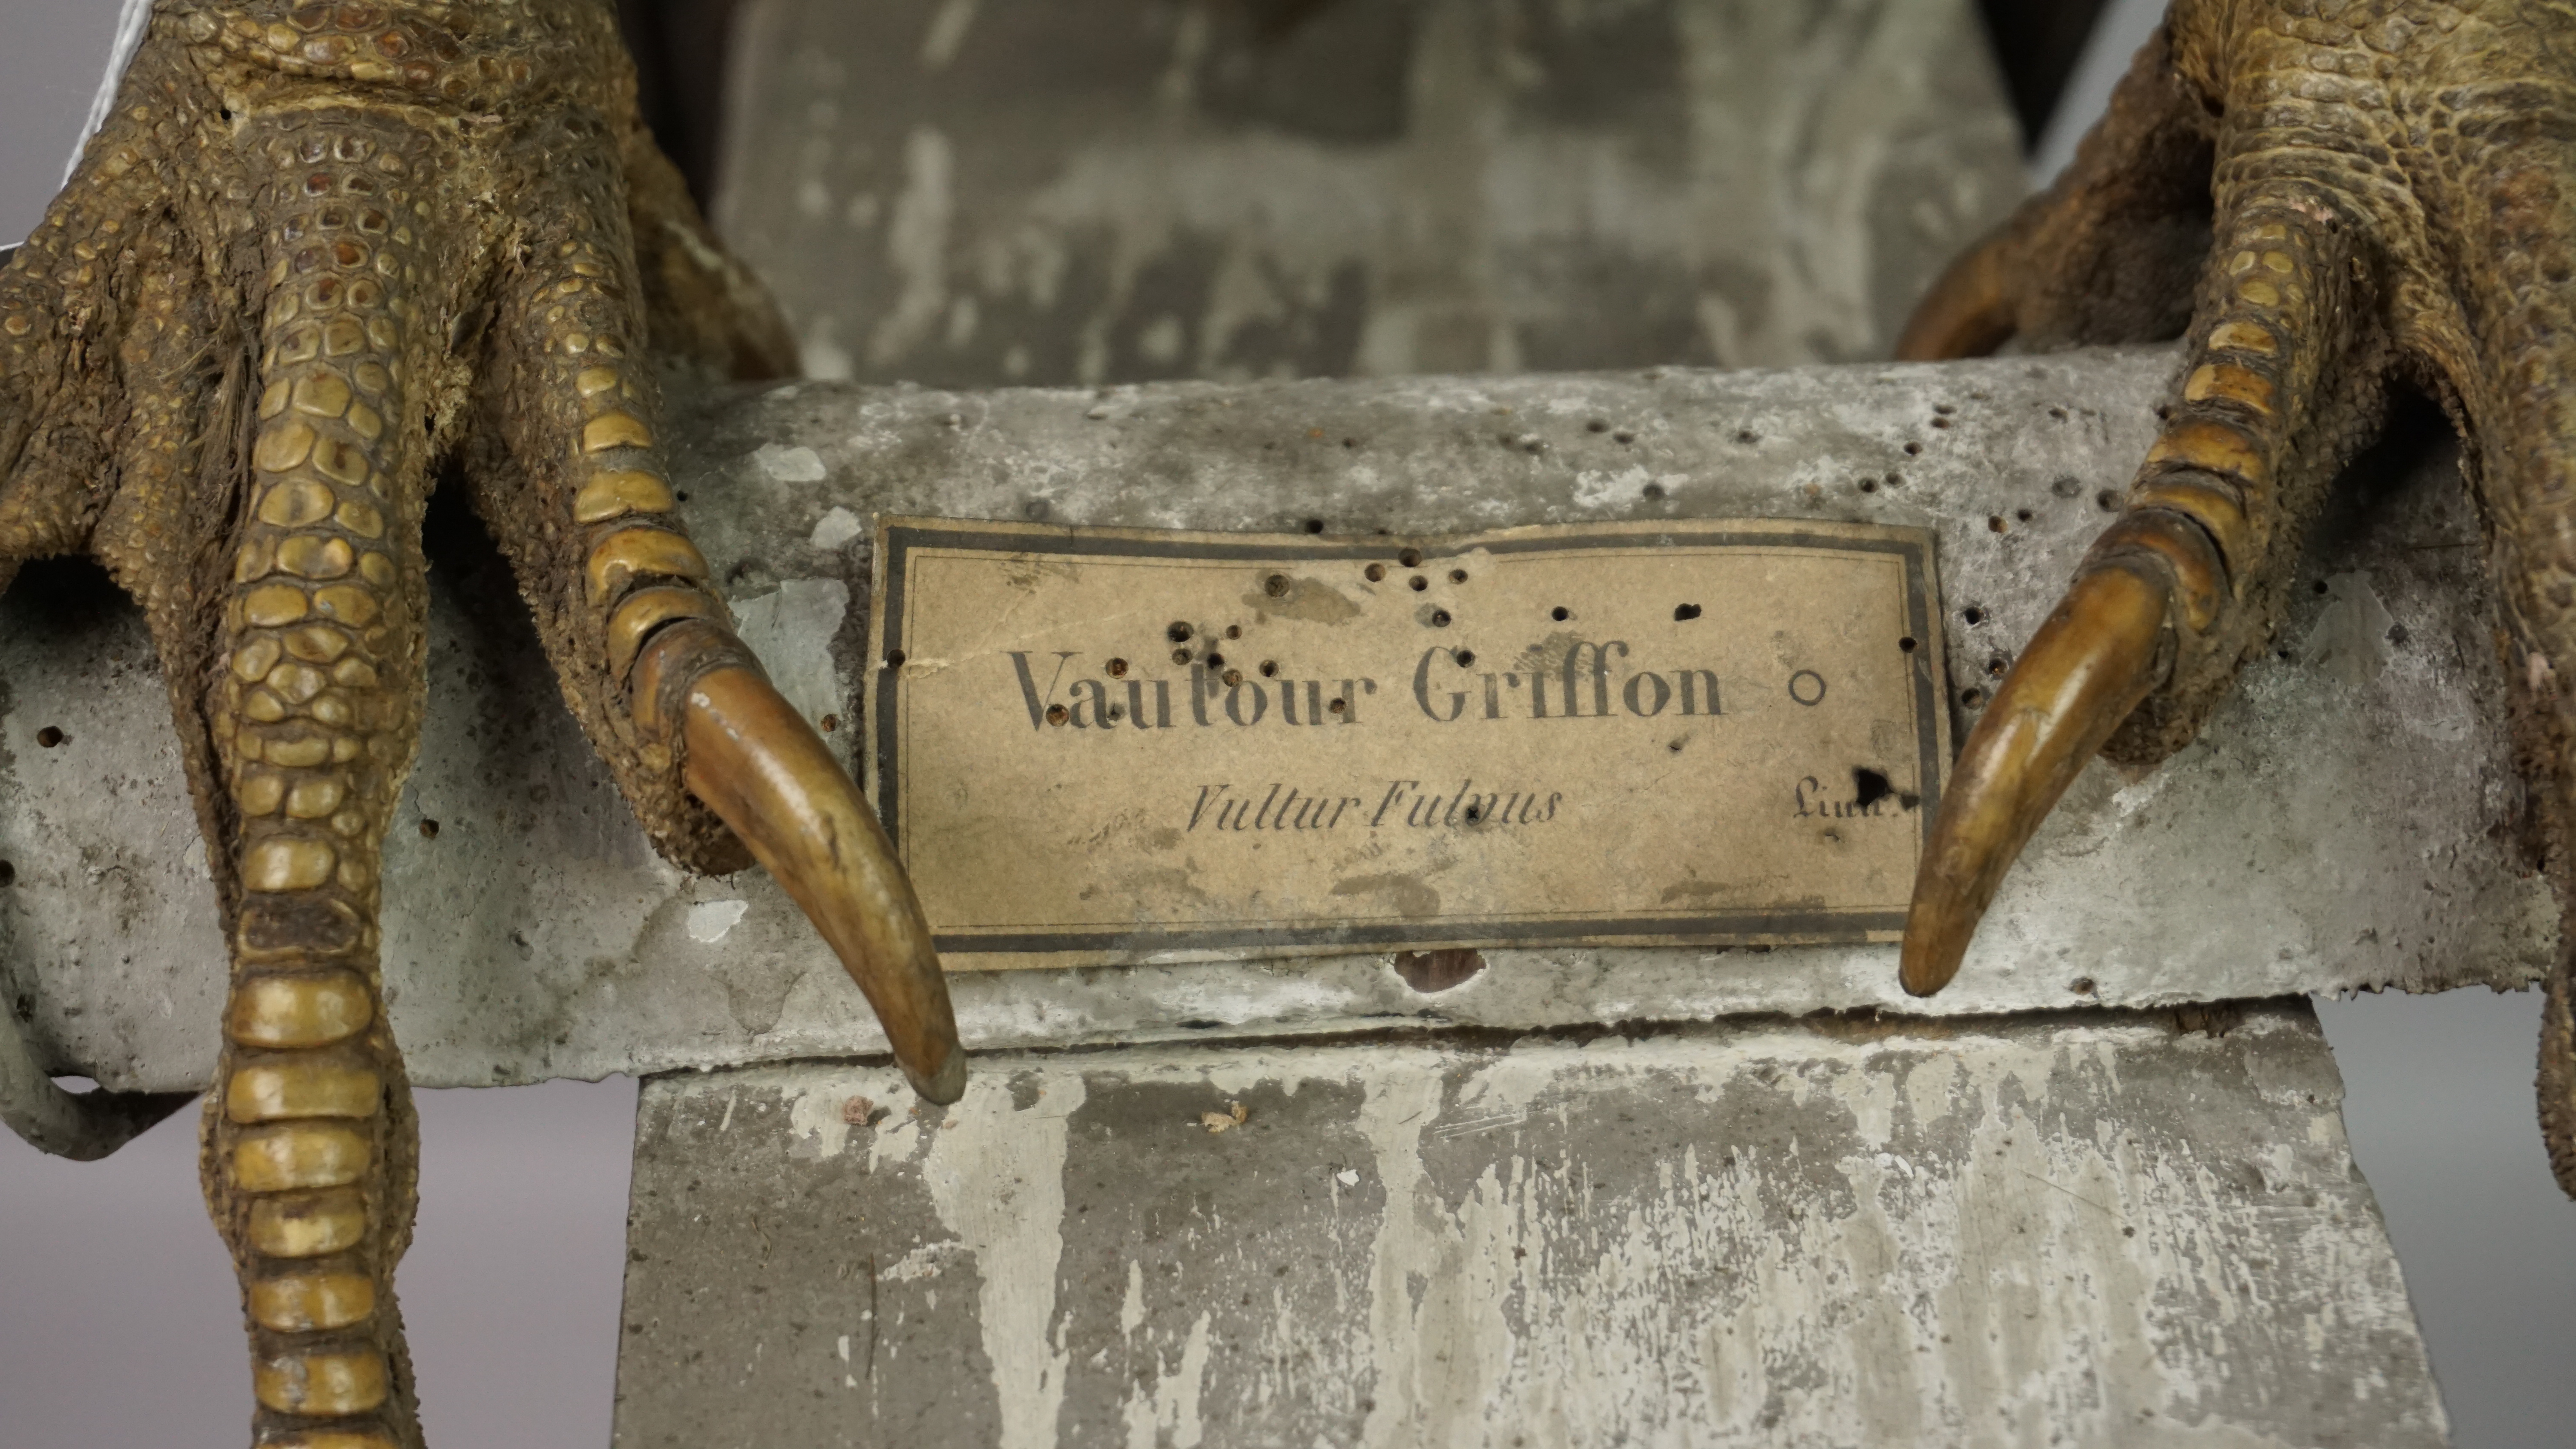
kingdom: Animalia
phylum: Chordata
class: Aves
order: Accipitriformes
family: Accipitridae
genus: Gyps
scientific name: Gyps fulvus
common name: Griffon vulture
